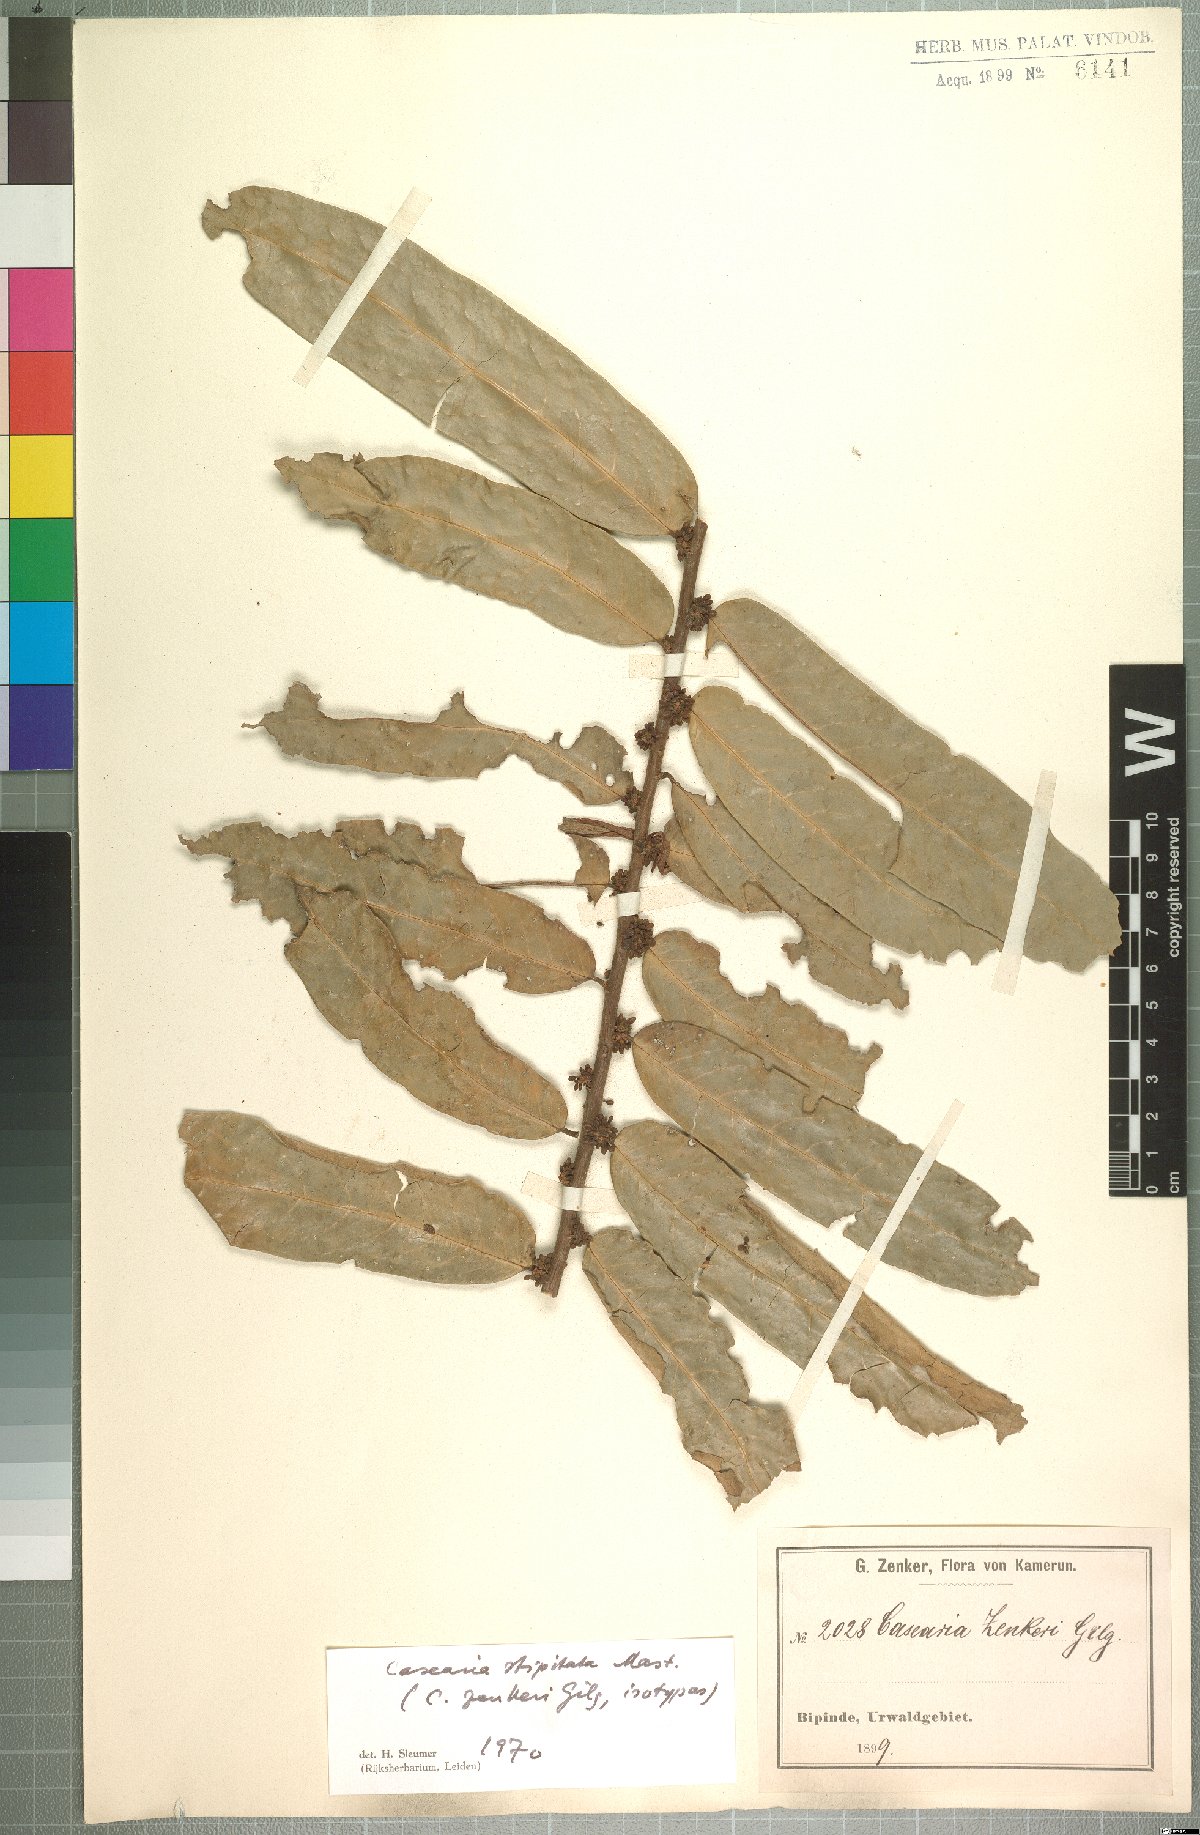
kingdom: Plantae
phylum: Tracheophyta
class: Magnoliopsida
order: Malpighiales
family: Salicaceae
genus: Casearia
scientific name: Casearia stipitata
